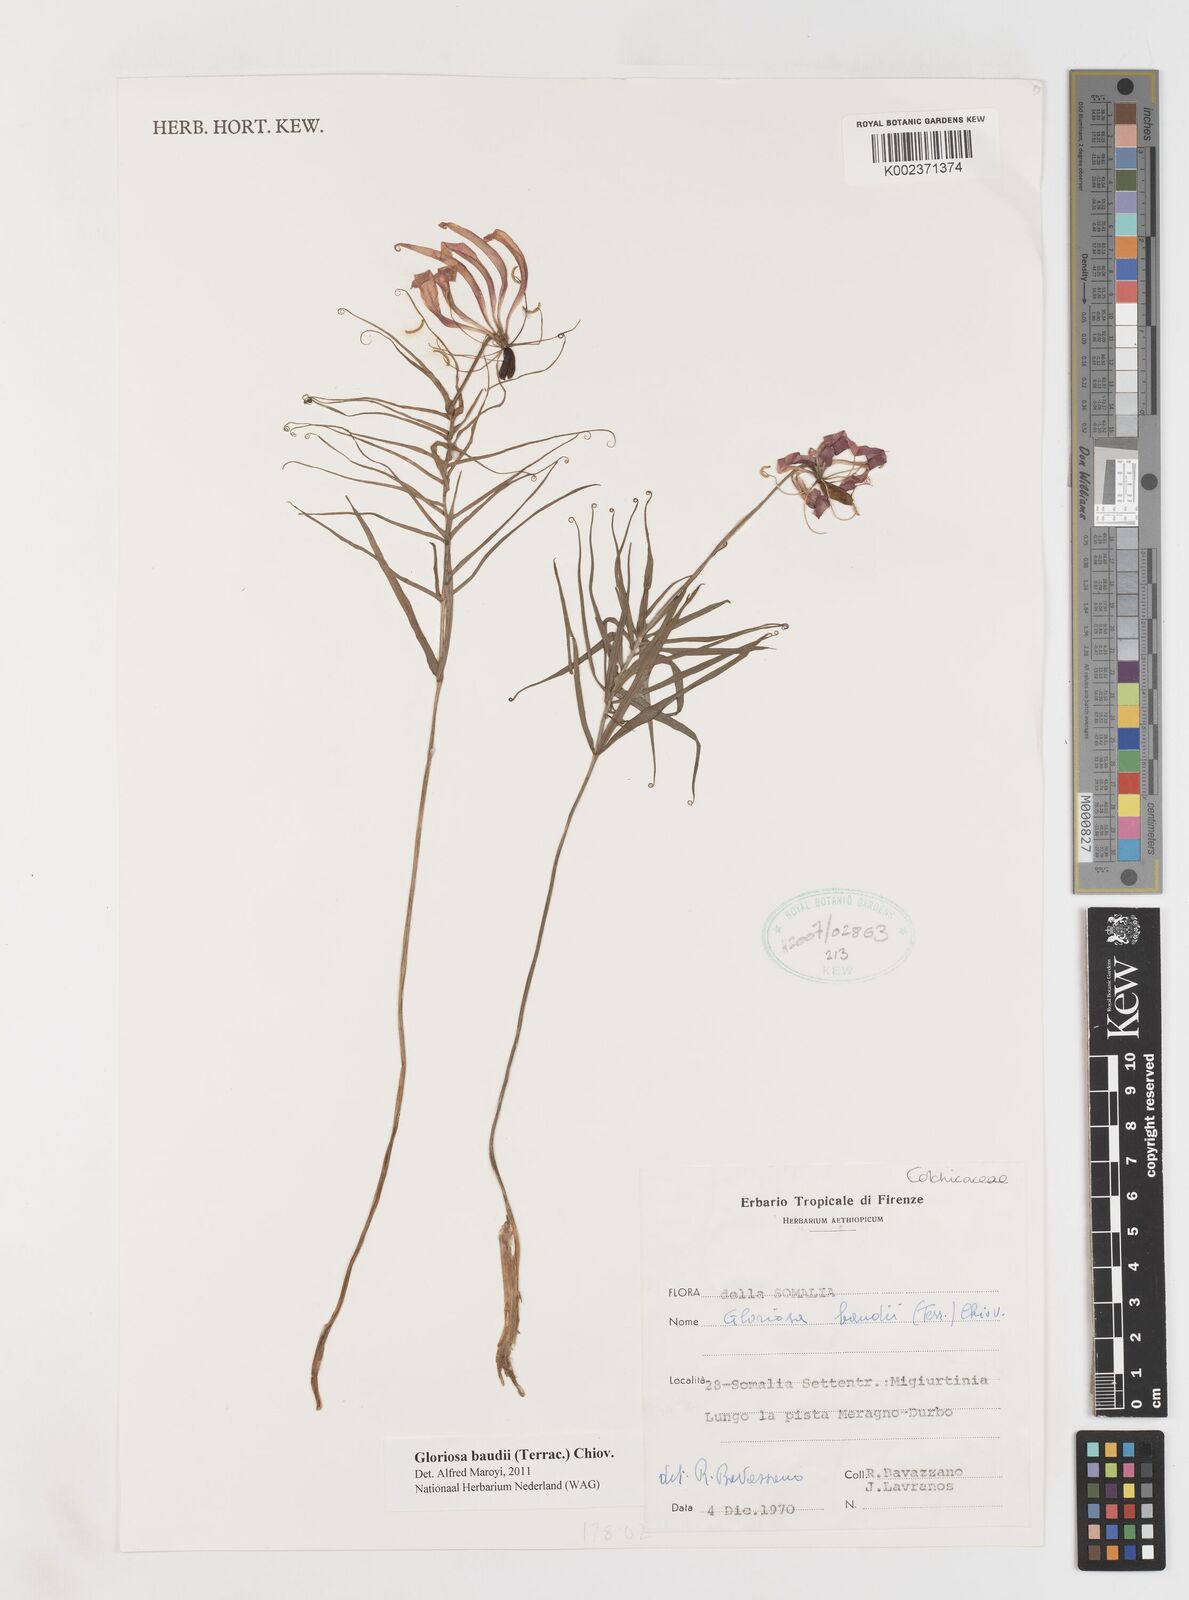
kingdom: Plantae
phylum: Tracheophyta
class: Liliopsida
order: Liliales
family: Colchicaceae
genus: Gloriosa
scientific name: Gloriosa baudii
